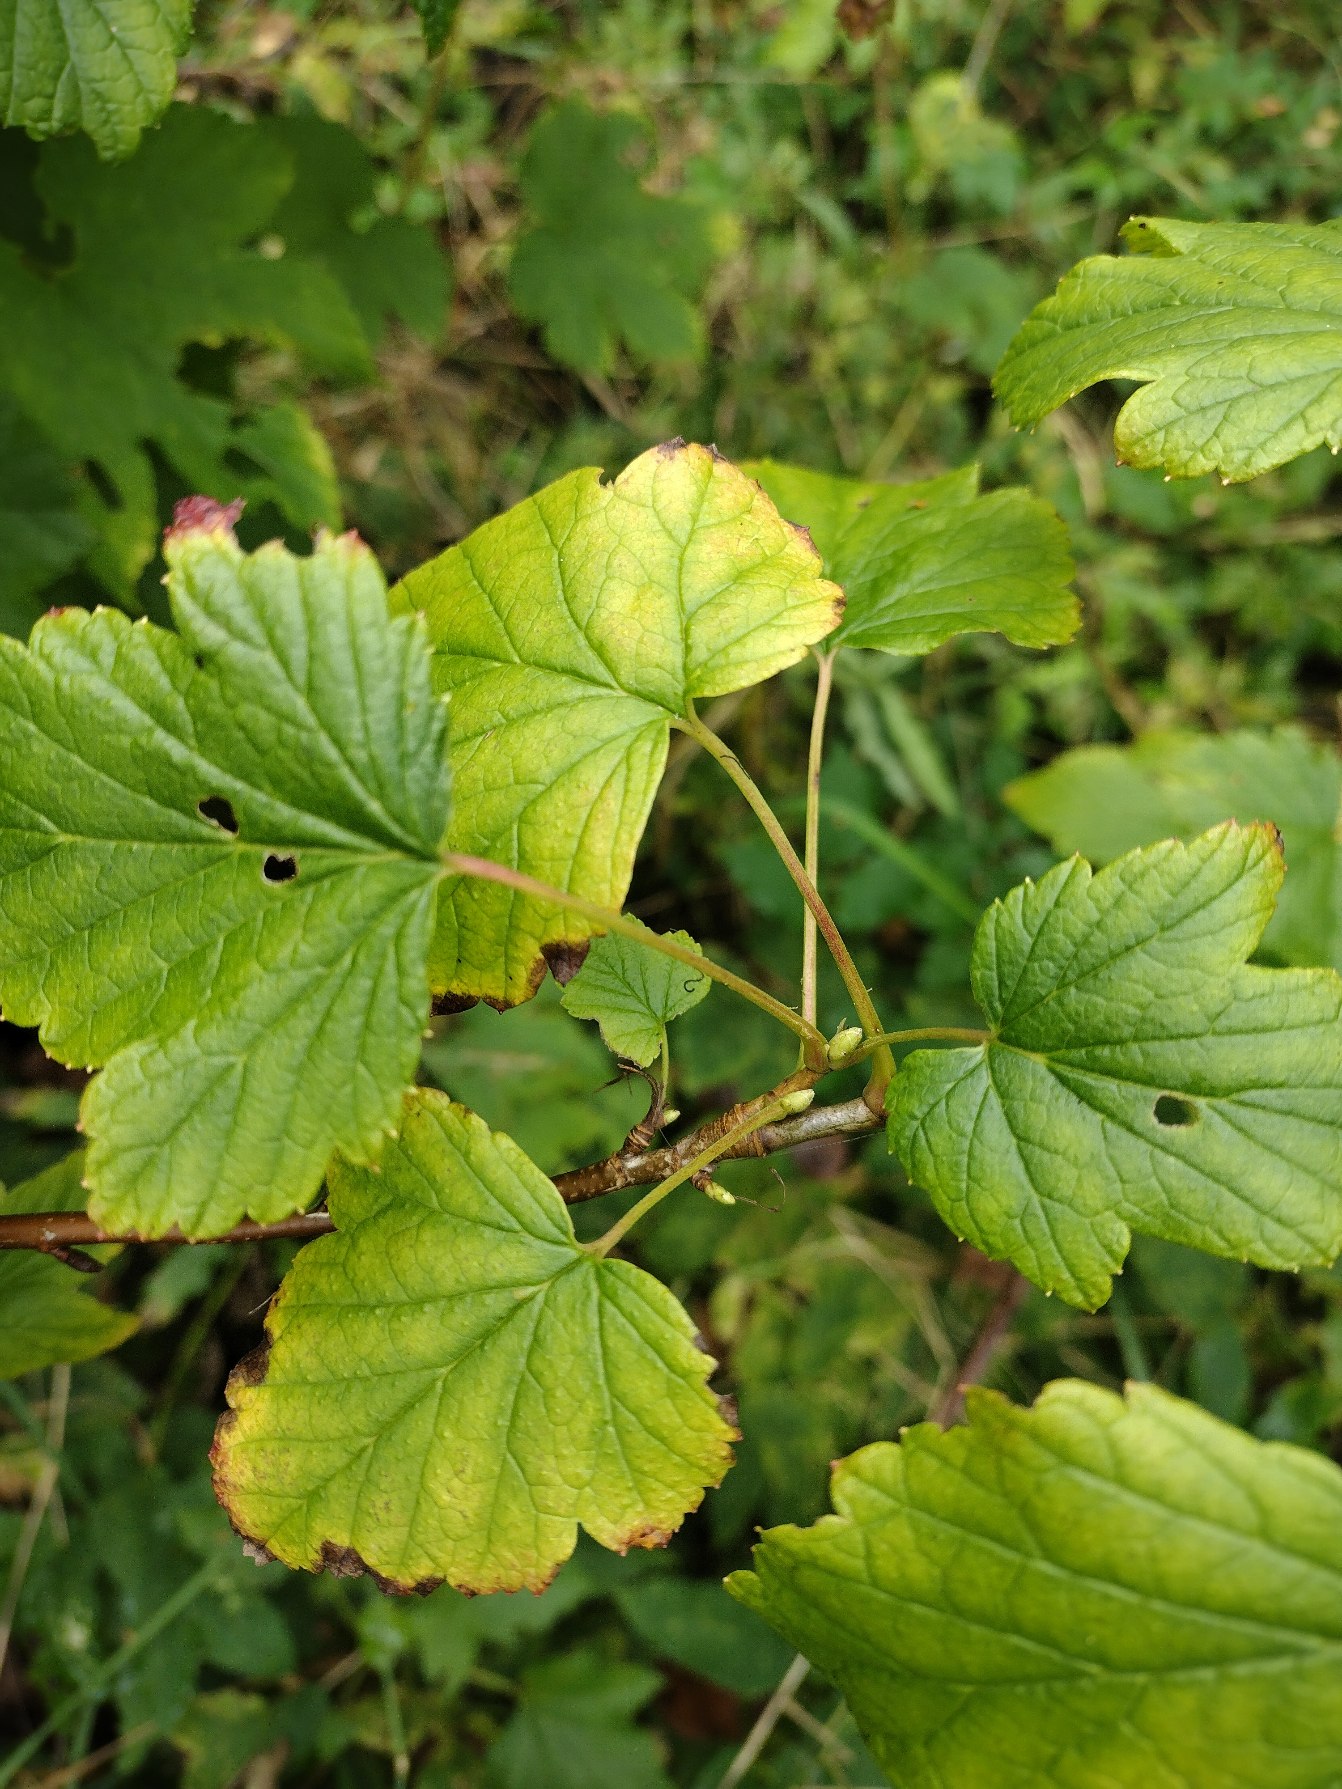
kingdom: Plantae
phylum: Tracheophyta
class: Magnoliopsida
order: Saxifragales
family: Grossulariaceae
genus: Ribes
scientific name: Ribes nigrum
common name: Solbær
